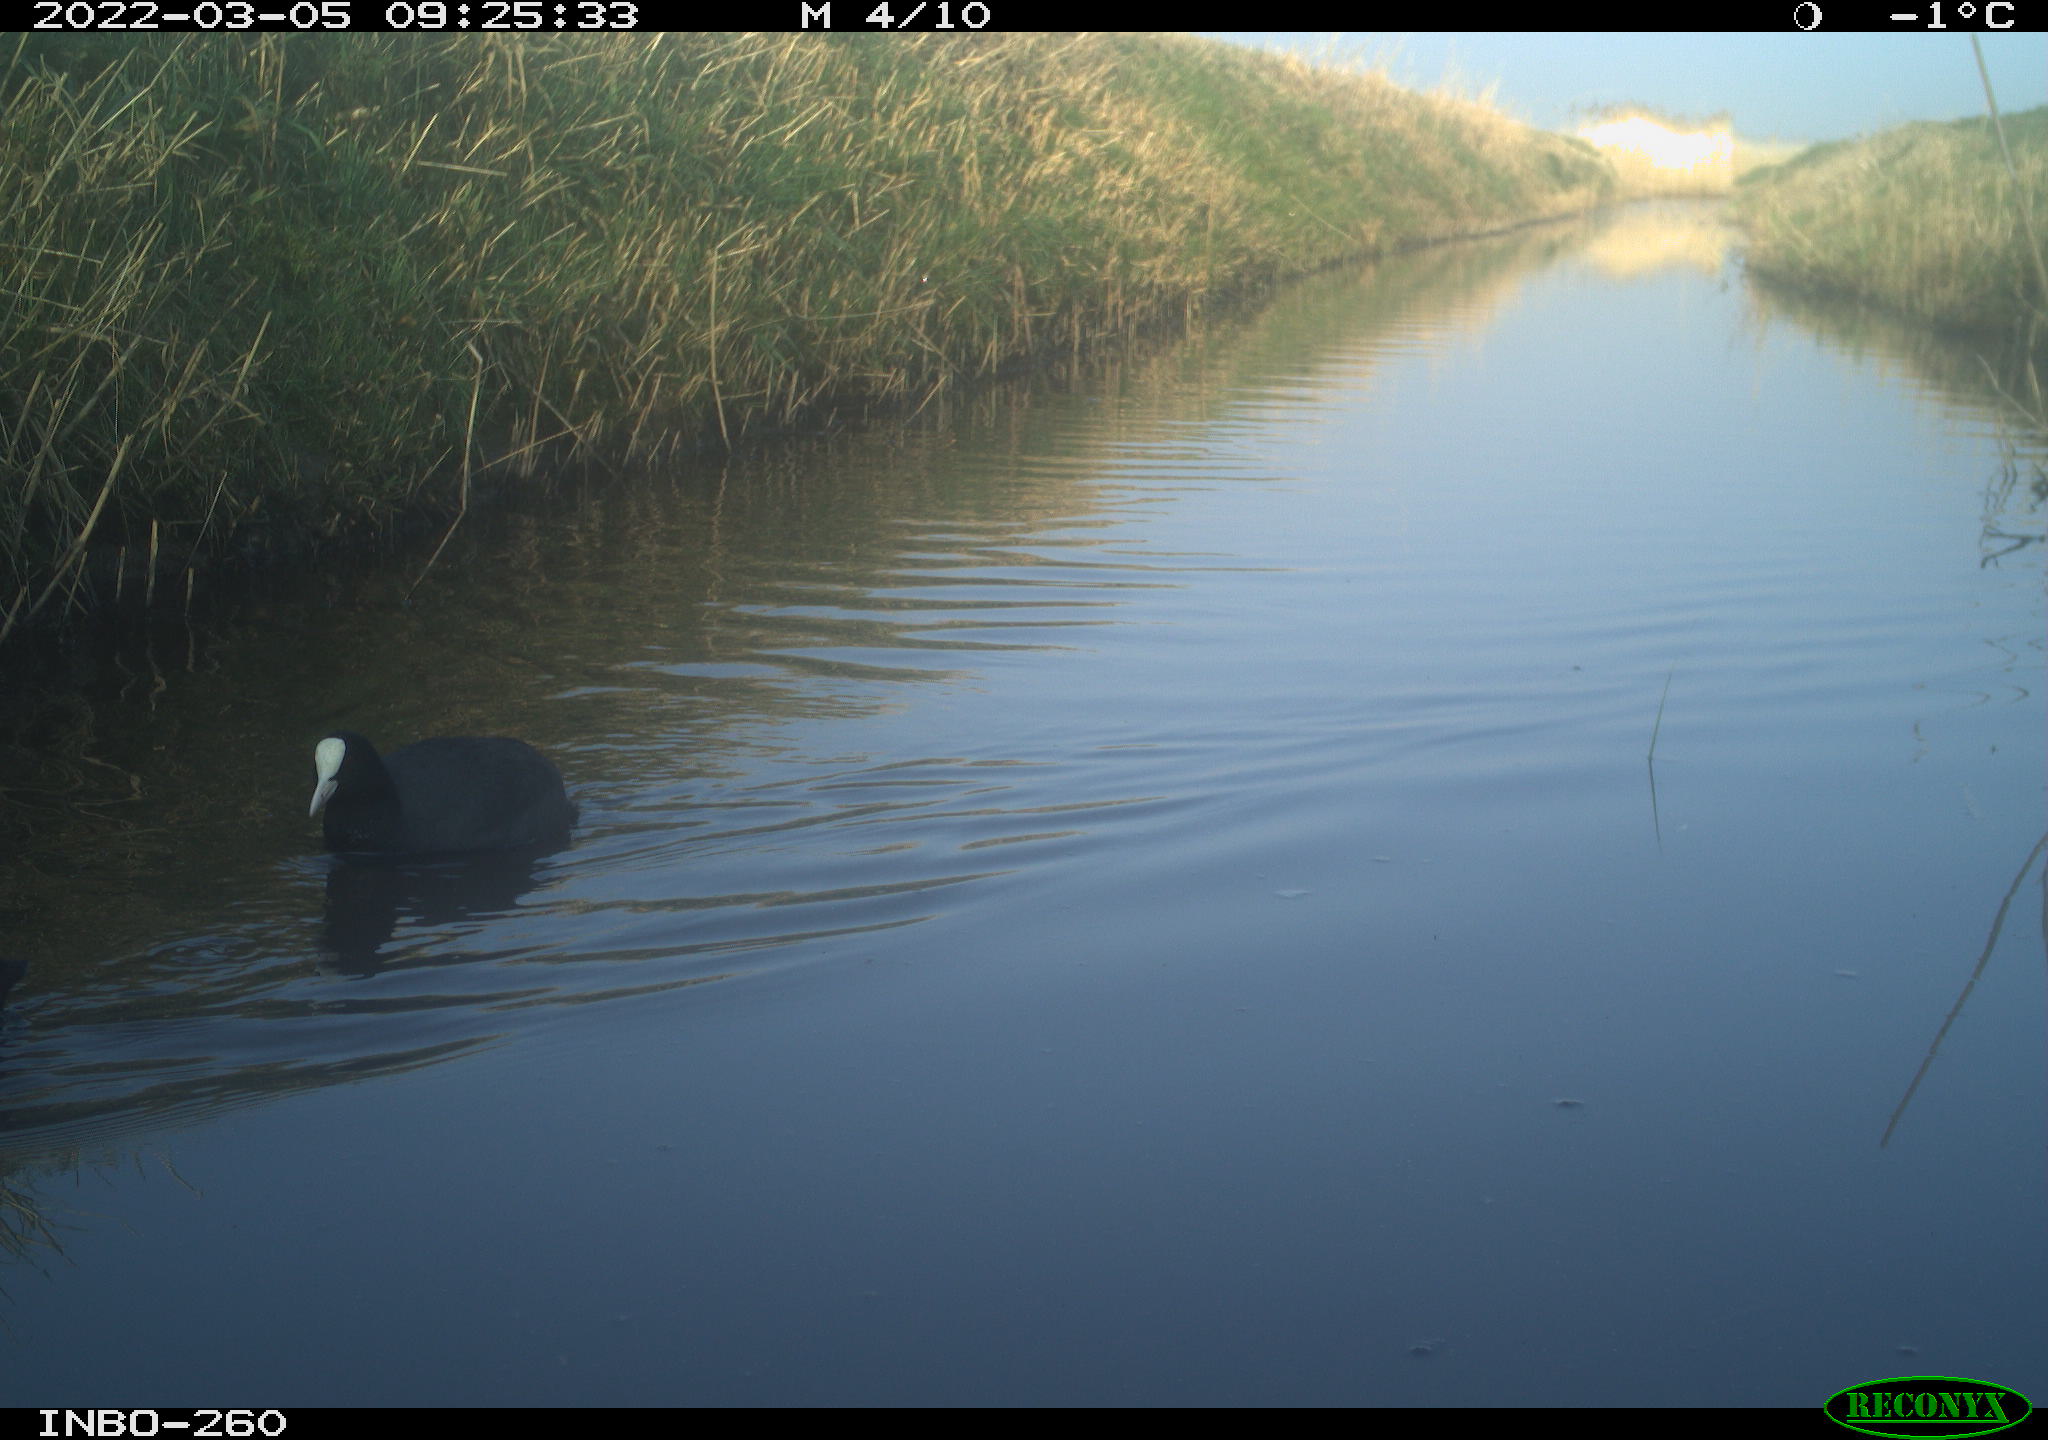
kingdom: Animalia
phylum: Chordata
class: Aves
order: Gruiformes
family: Rallidae
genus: Fulica
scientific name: Fulica atra
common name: Eurasian coot
